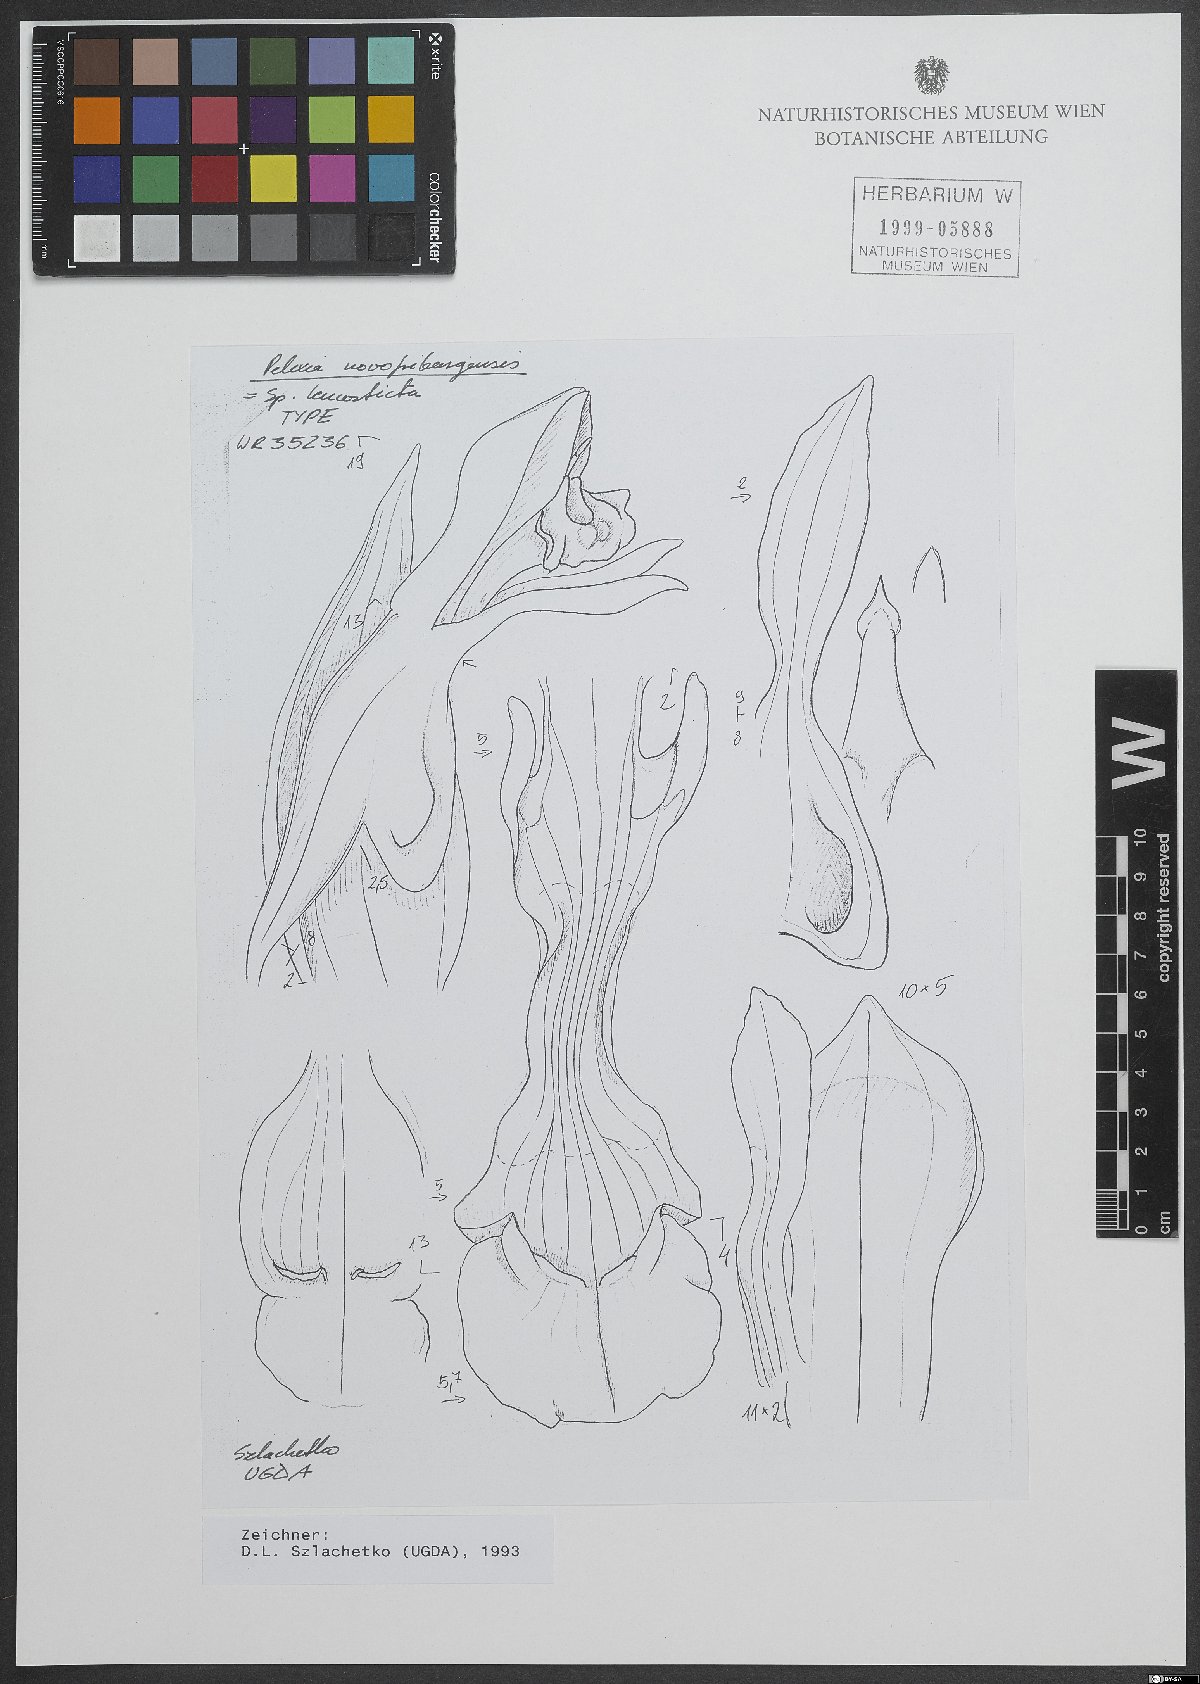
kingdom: Plantae
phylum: Tracheophyta
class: Liliopsida
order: Asparagales
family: Orchidaceae
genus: Pelexia
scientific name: Pelexia novofriburgensis
